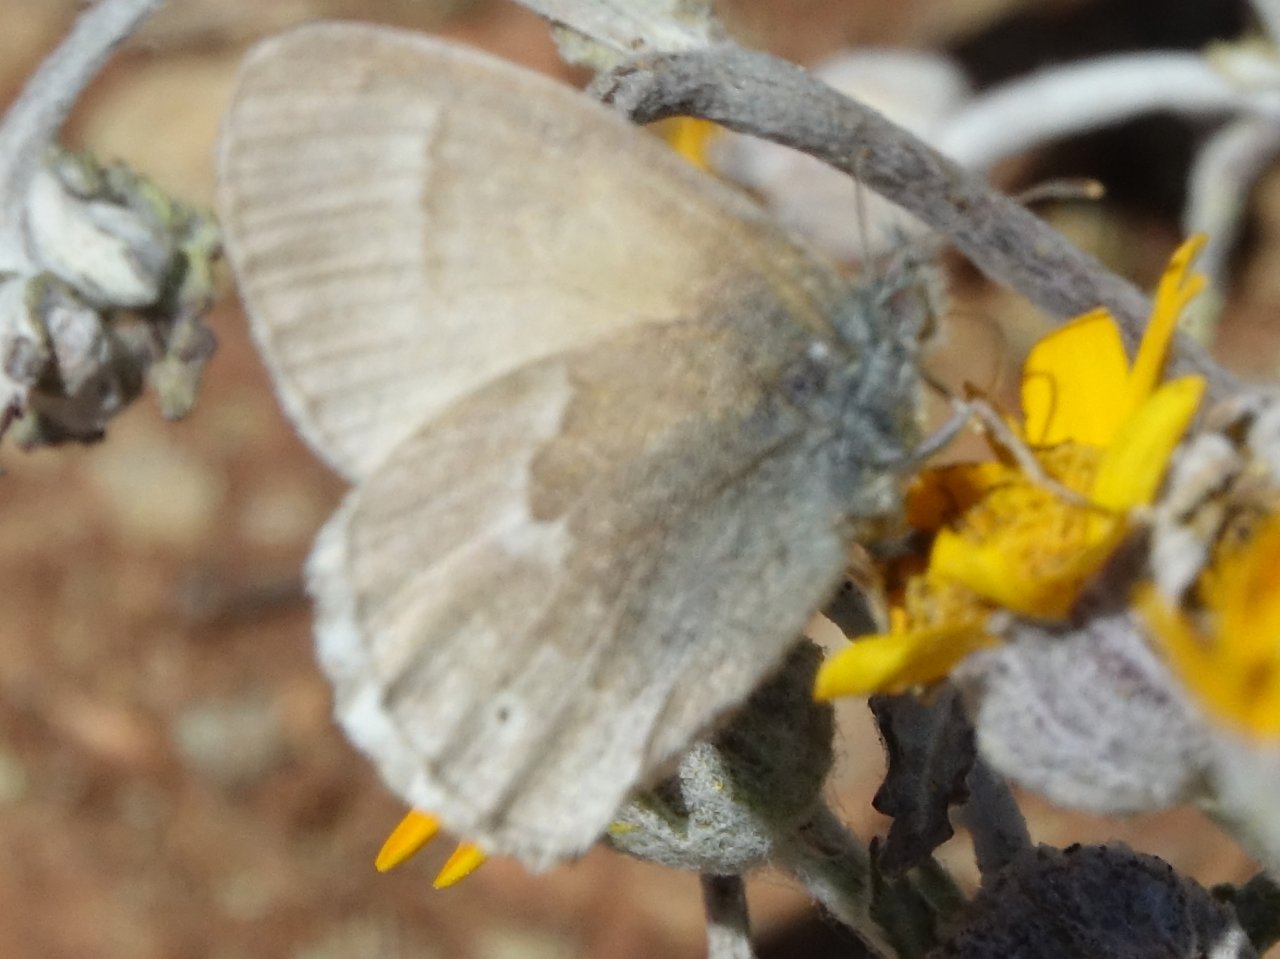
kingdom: Animalia
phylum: Arthropoda
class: Insecta
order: Lepidoptera
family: Nymphalidae
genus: Coenonympha
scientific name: Coenonympha tullia
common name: Large Heath
